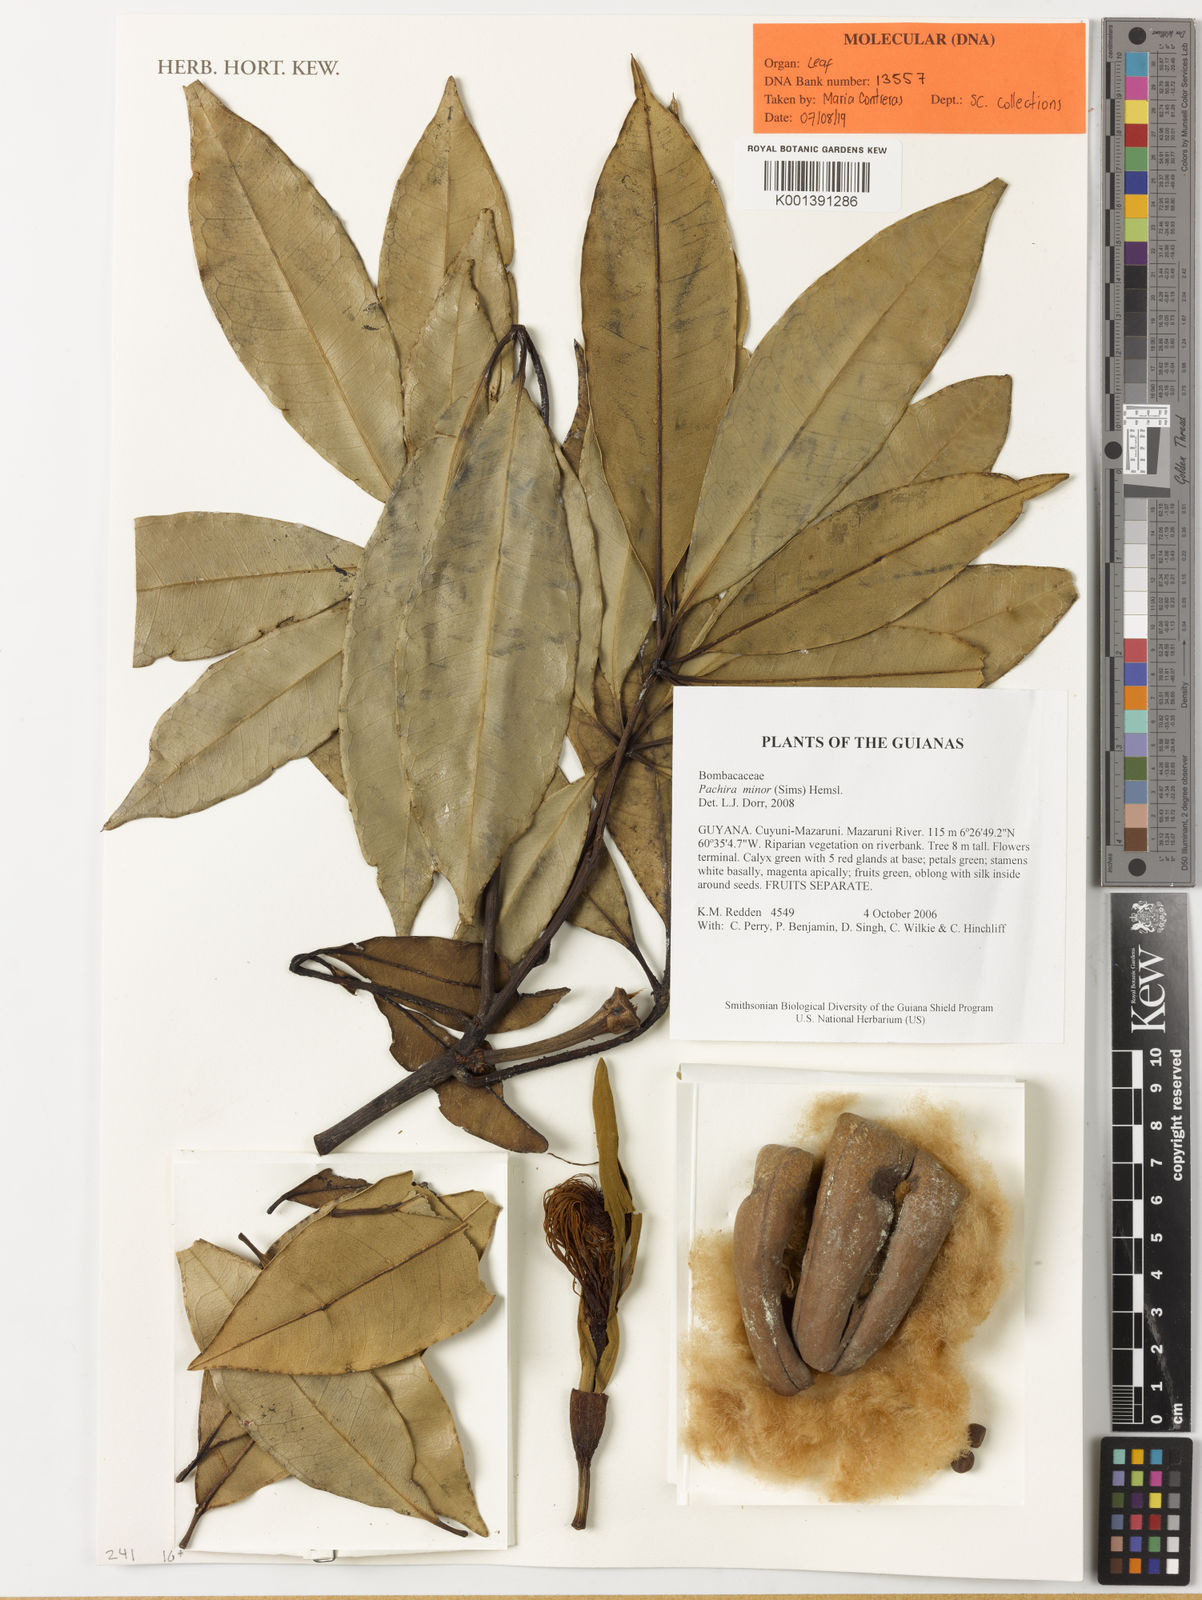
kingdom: Plantae
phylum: Tracheophyta
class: Magnoliopsida
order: Malvales
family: Malvaceae
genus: Pachira
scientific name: Pachira minor
